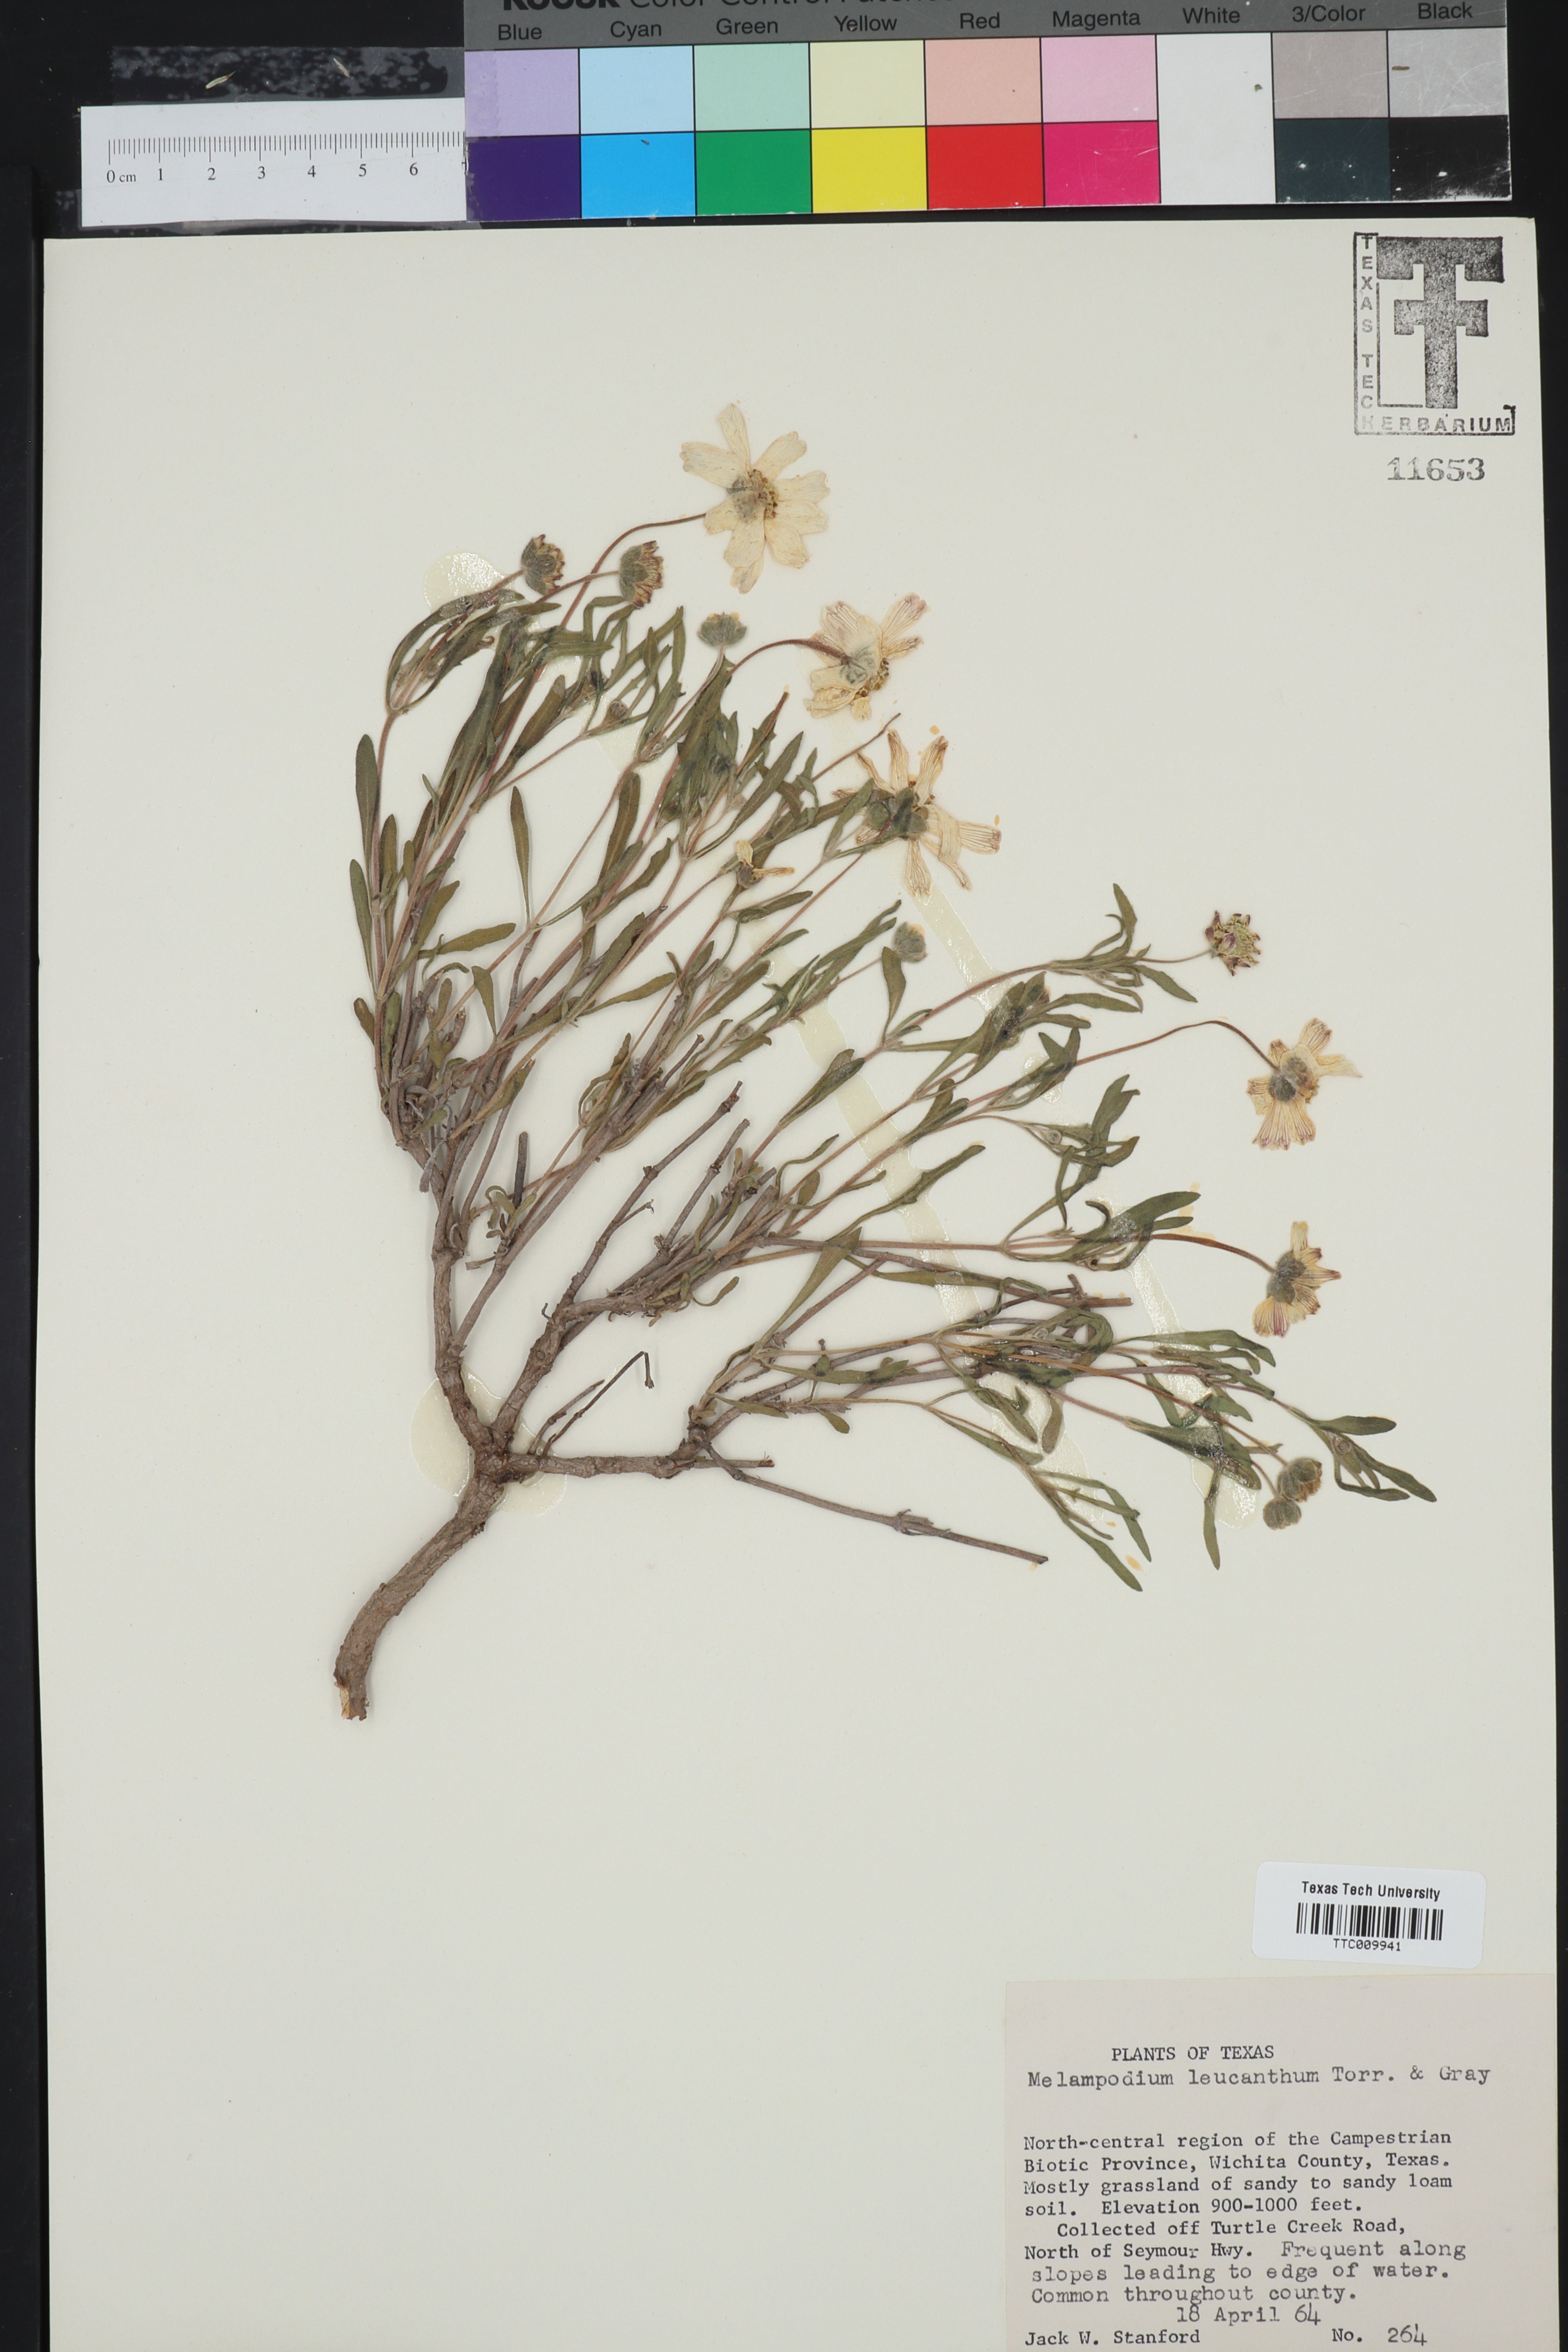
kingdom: Plantae
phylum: Tracheophyta
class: Magnoliopsida
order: Asterales
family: Asteraceae
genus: Melampodium
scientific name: Melampodium leucanthum
